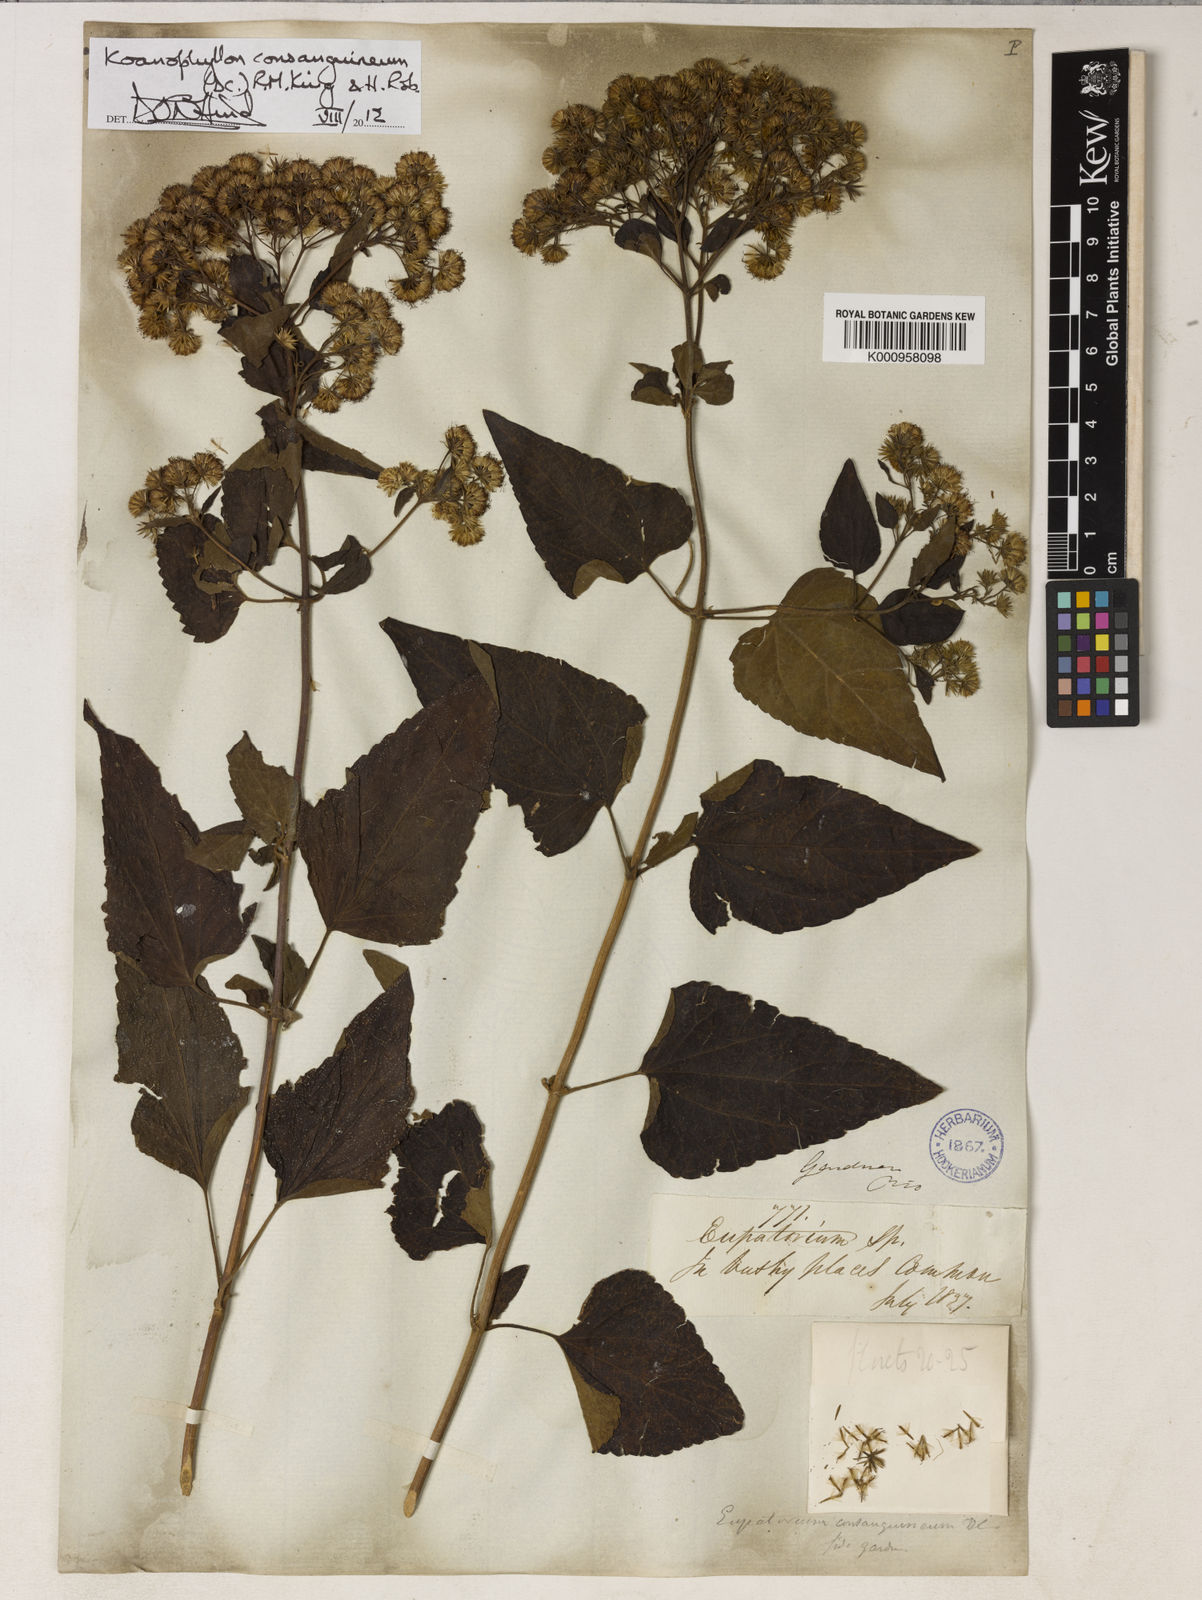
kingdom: Plantae
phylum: Tracheophyta
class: Magnoliopsida
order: Asterales
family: Asteraceae
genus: Koanophyllon
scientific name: Koanophyllon consanguineum
